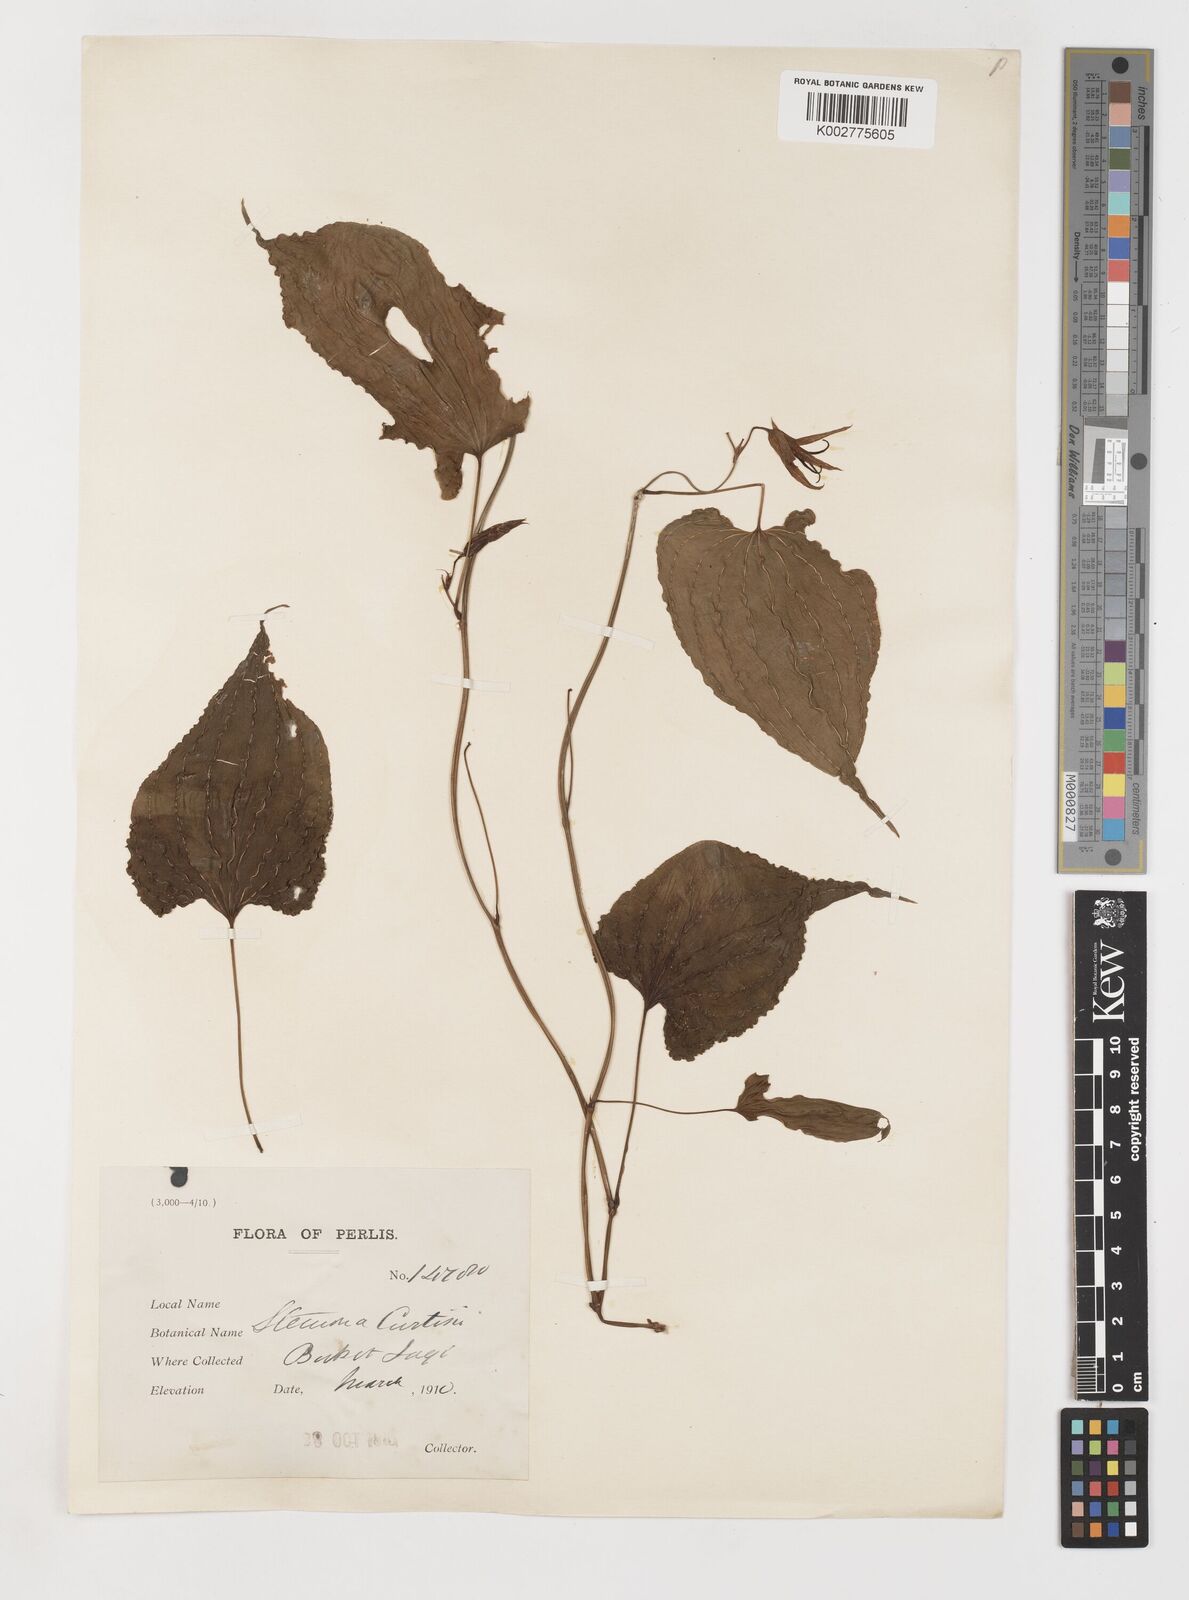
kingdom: Plantae
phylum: Tracheophyta
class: Liliopsida
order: Pandanales
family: Stemonaceae
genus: Stemona
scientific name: Stemona tuberosa
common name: Stemona
